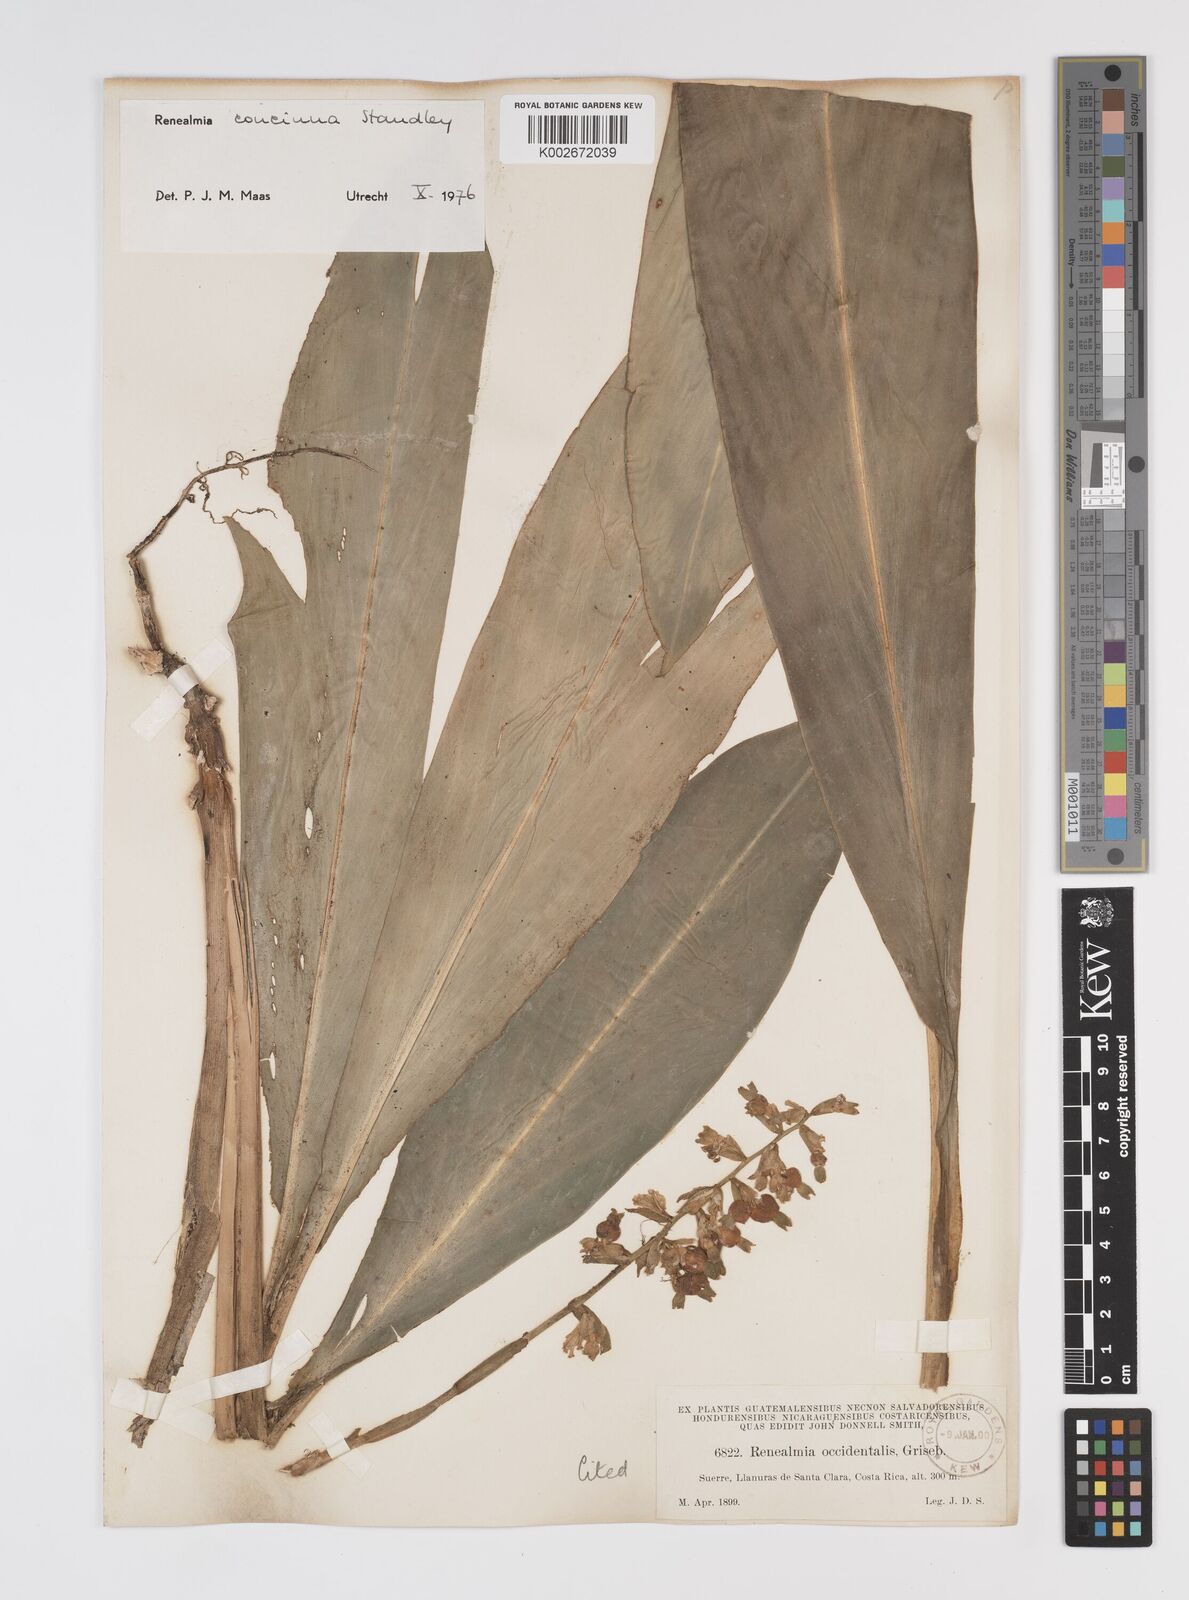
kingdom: Plantae
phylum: Tracheophyta
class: Liliopsida
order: Zingiberales
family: Zingiberaceae
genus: Renealmia
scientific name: Renealmia concinna
